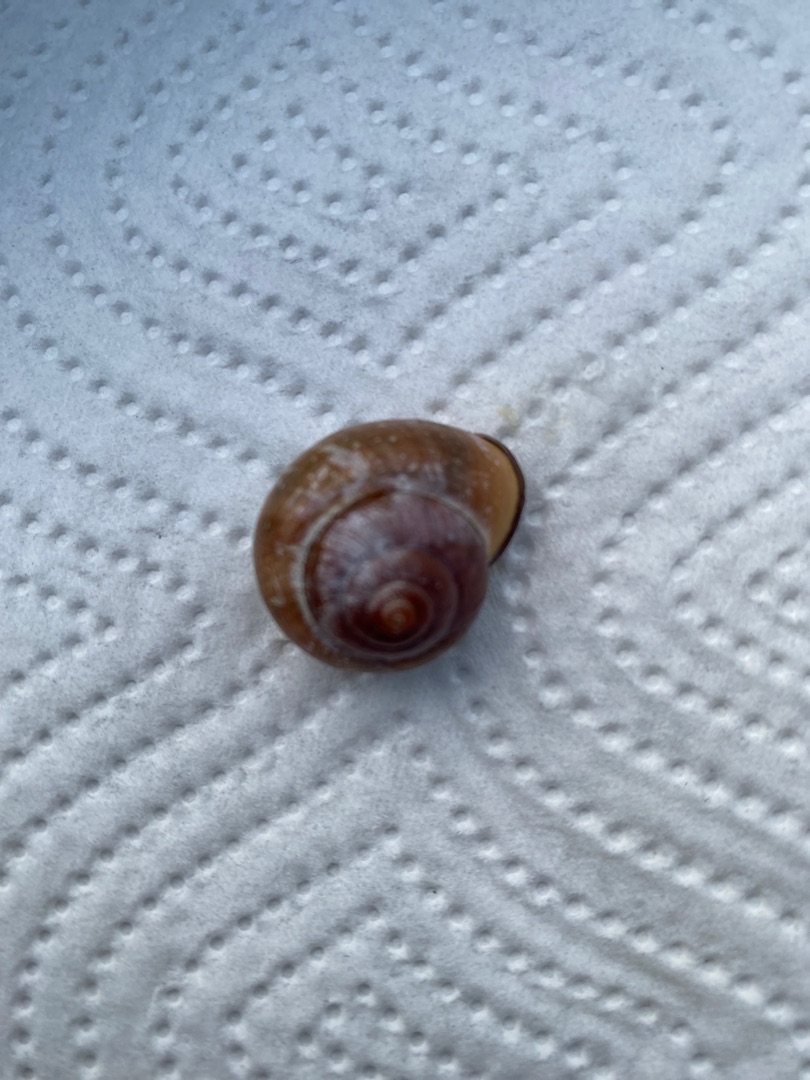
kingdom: Animalia
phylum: Mollusca
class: Gastropoda
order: Stylommatophora
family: Helicidae
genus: Cepaea
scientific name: Cepaea nemoralis
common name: Lundsnegl
